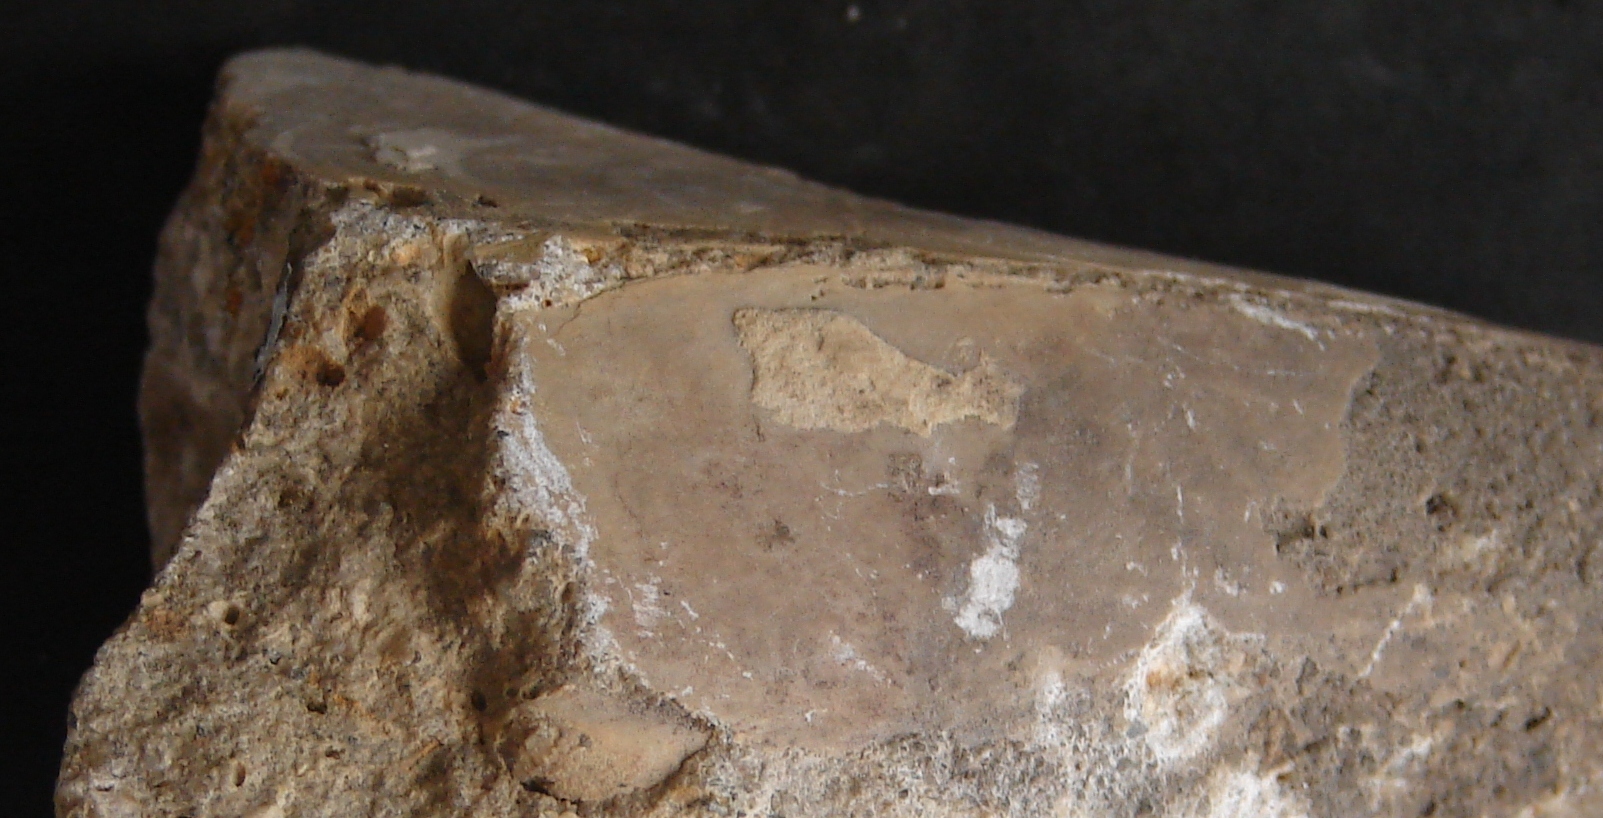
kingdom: Animalia
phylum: Mollusca
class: Bivalvia
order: Ostreida
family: Pinnidae
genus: Pinna
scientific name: Pinna folium
